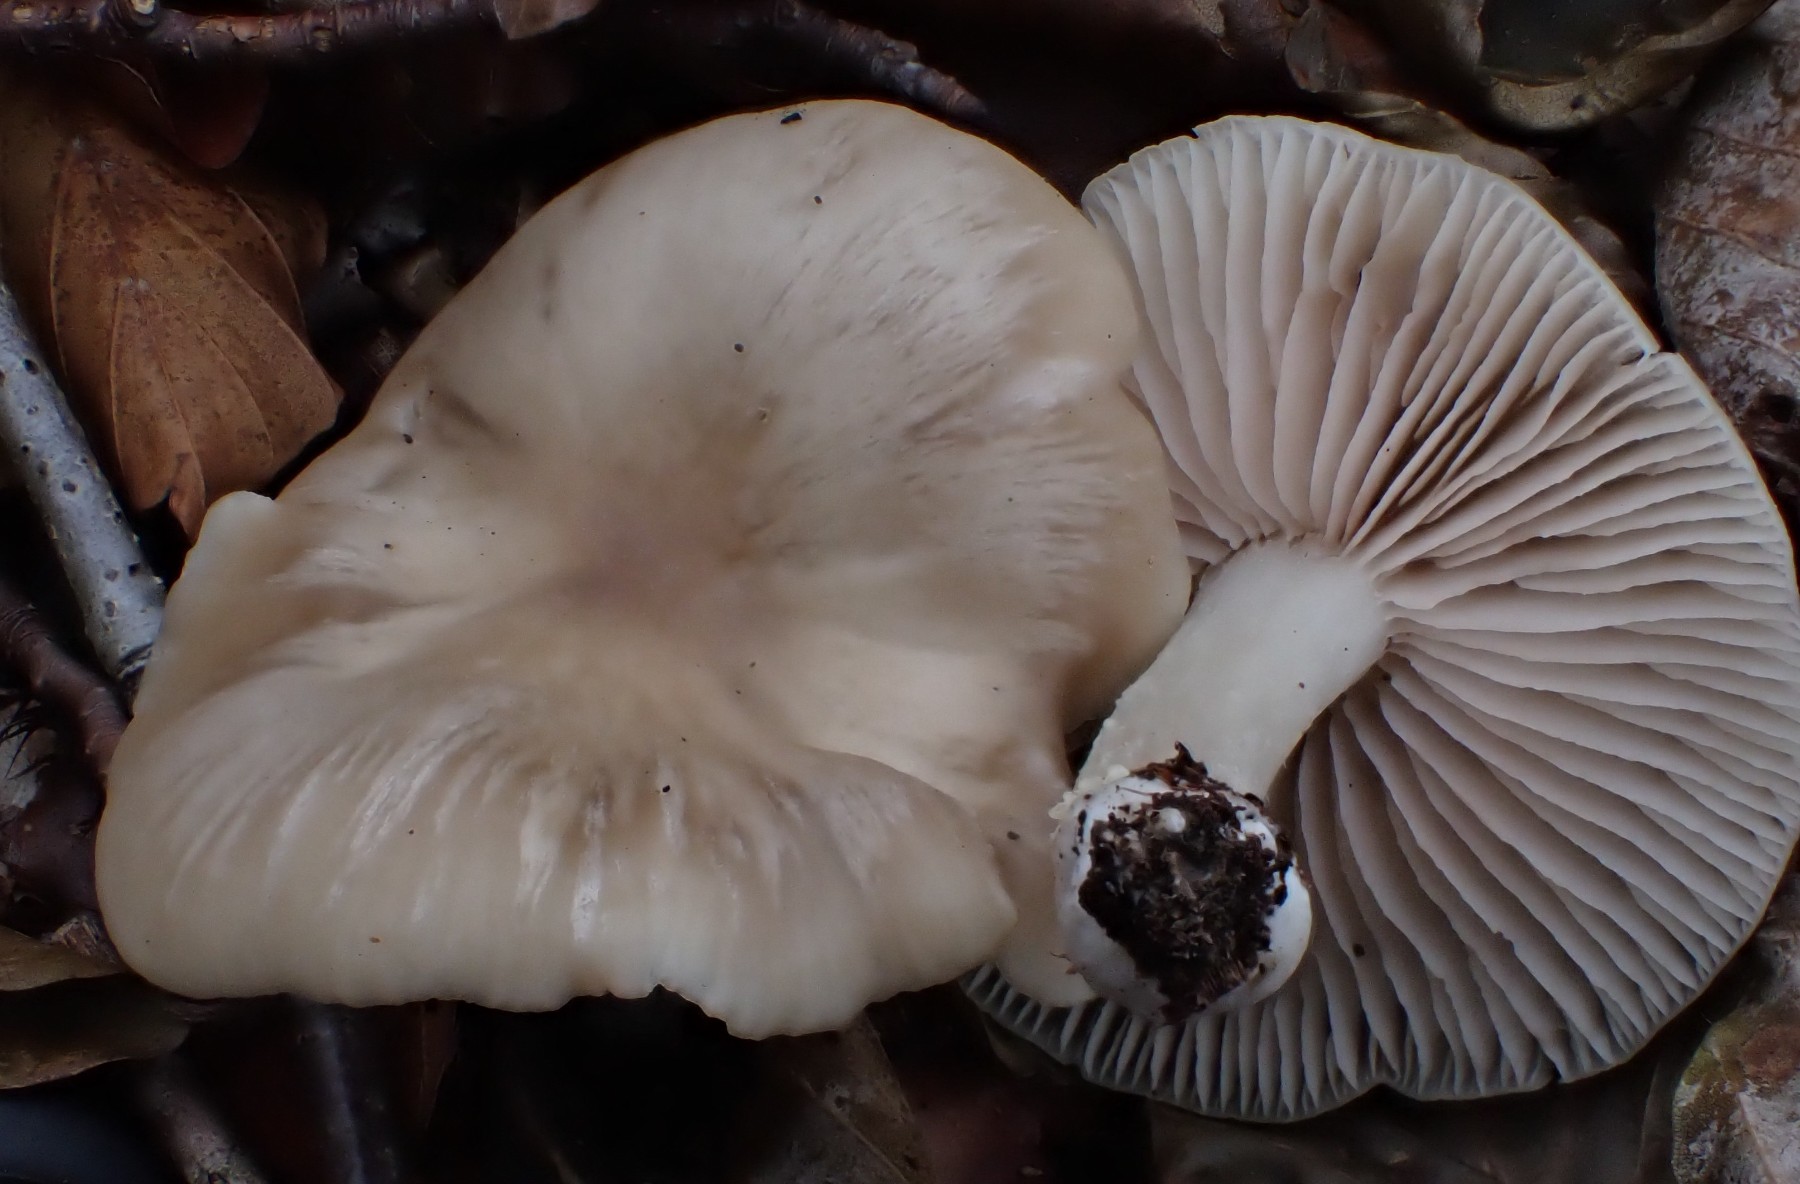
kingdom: Fungi
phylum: Basidiomycota
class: Agaricomycetes
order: Agaricales
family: Entolomataceae
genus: Entoloma
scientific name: Entoloma rhodopolium
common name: skov-rødblad
